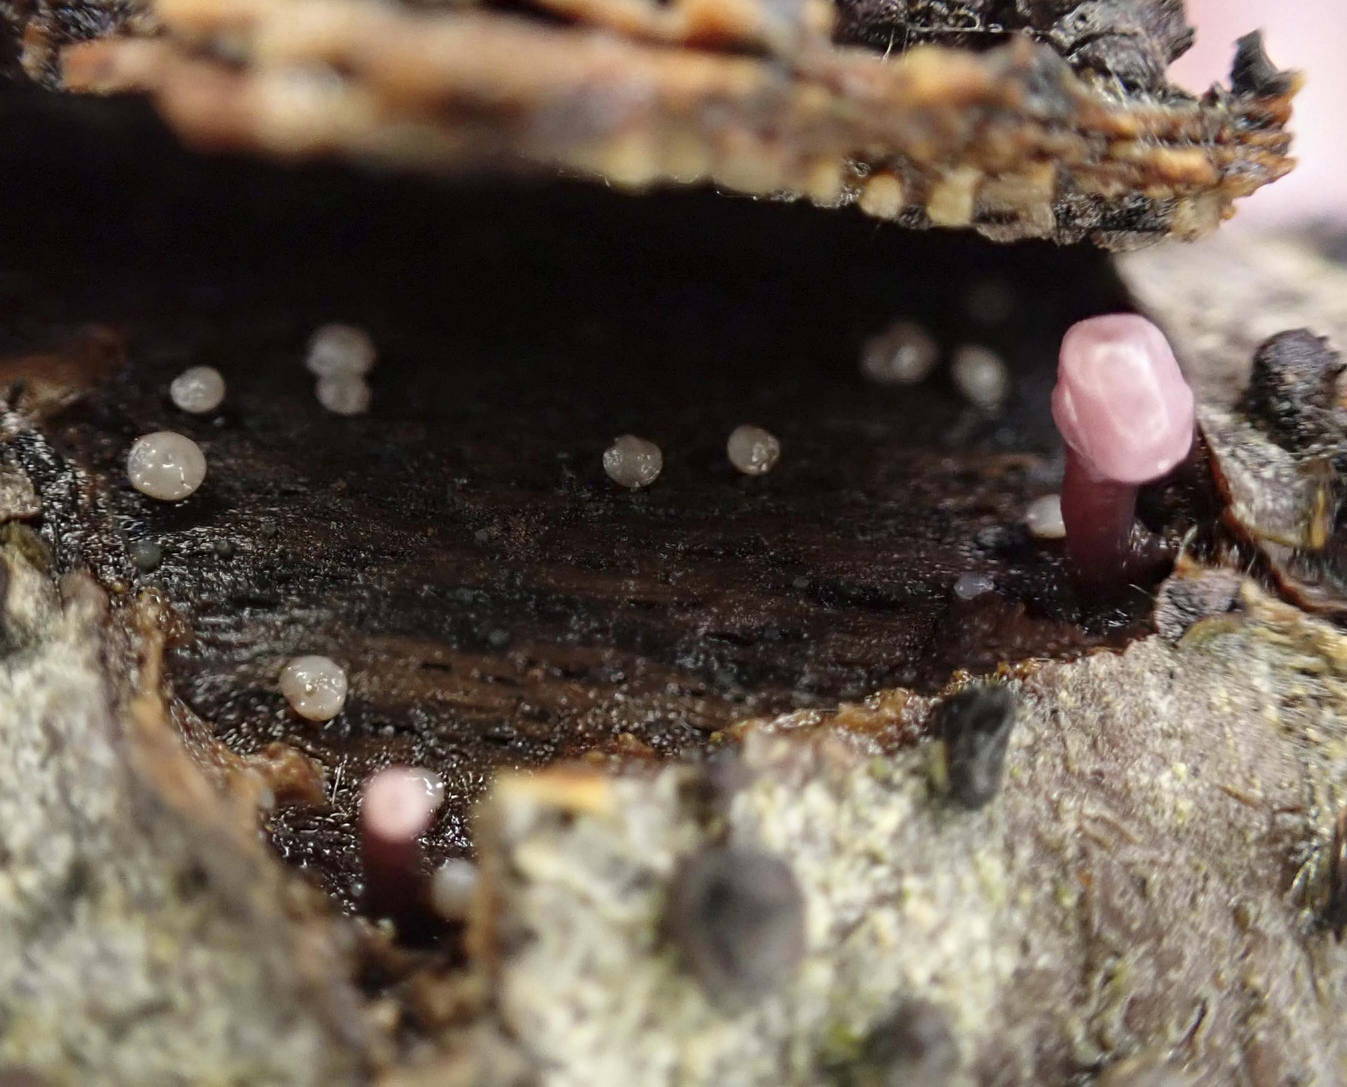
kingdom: Fungi
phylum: Ascomycota
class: Leotiomycetes
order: Helotiales
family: Gelatinodiscaceae
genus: Ascocoryne
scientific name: Ascocoryne albida
